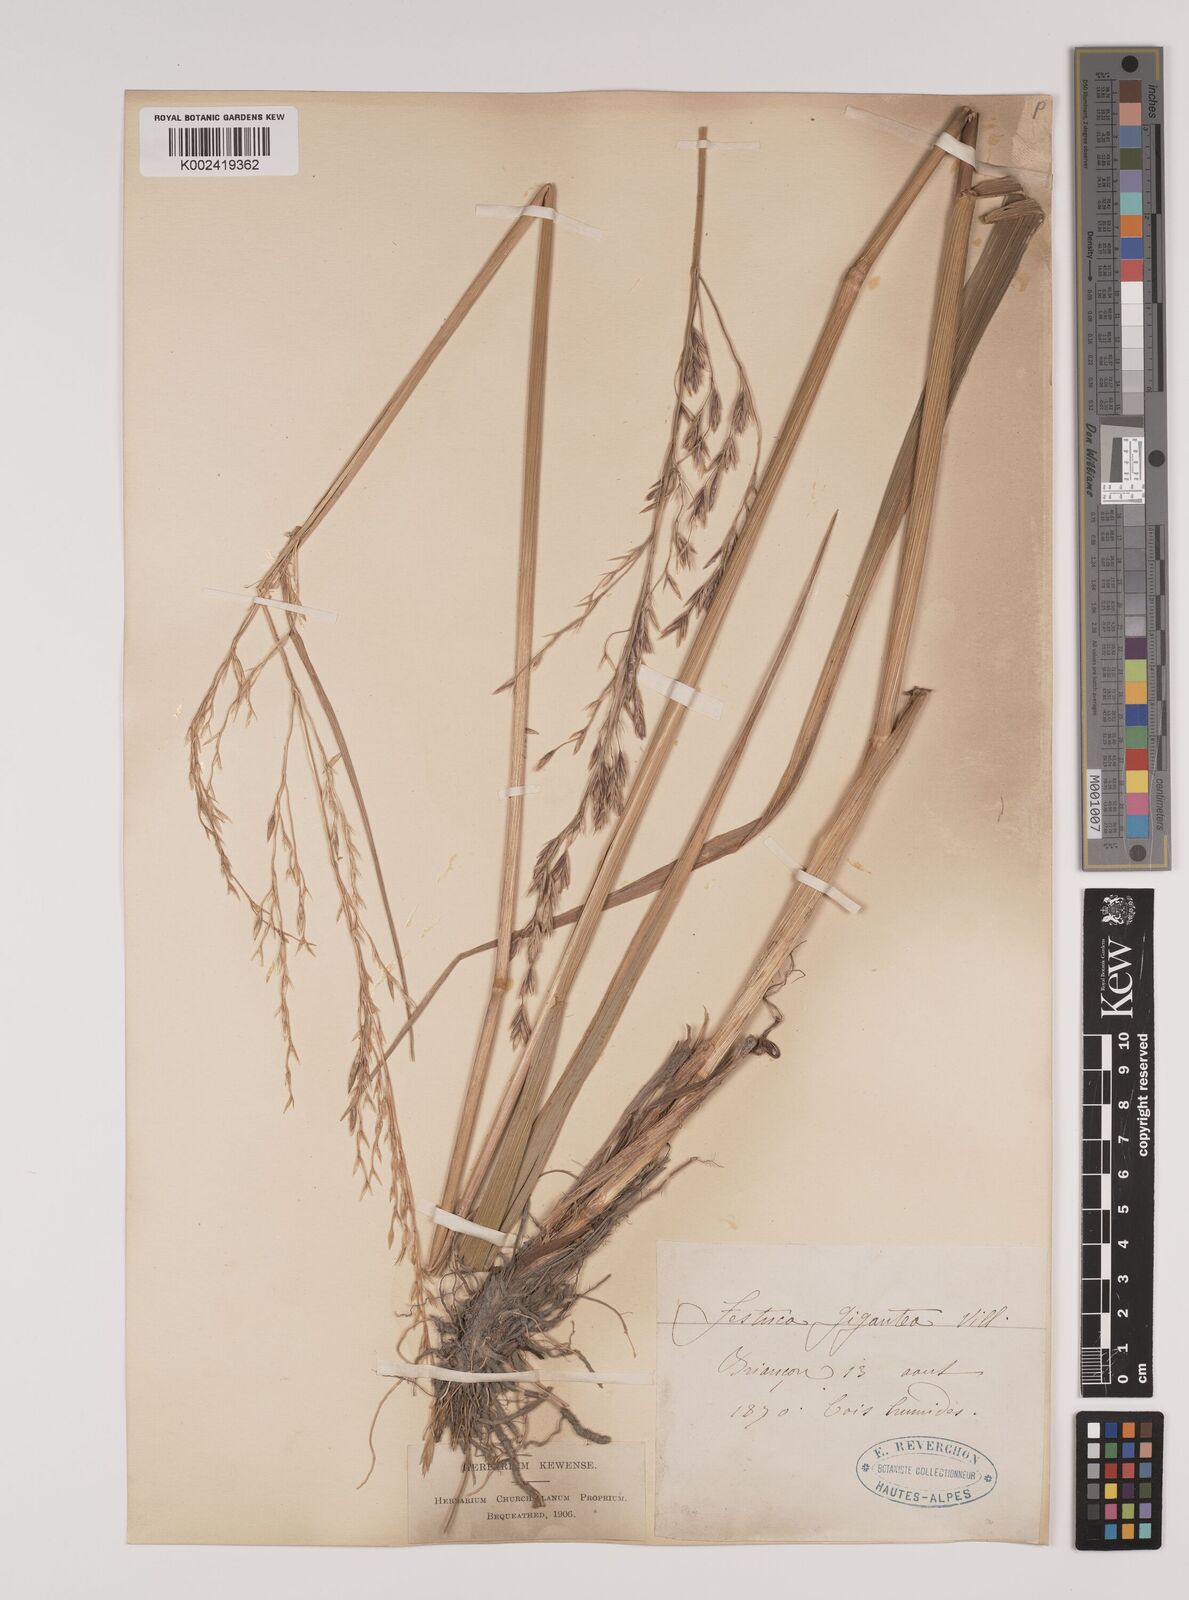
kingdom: Plantae
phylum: Tracheophyta
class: Liliopsida
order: Poales
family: Poaceae
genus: Lolium
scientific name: Lolium giganteum
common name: Giant fescue
